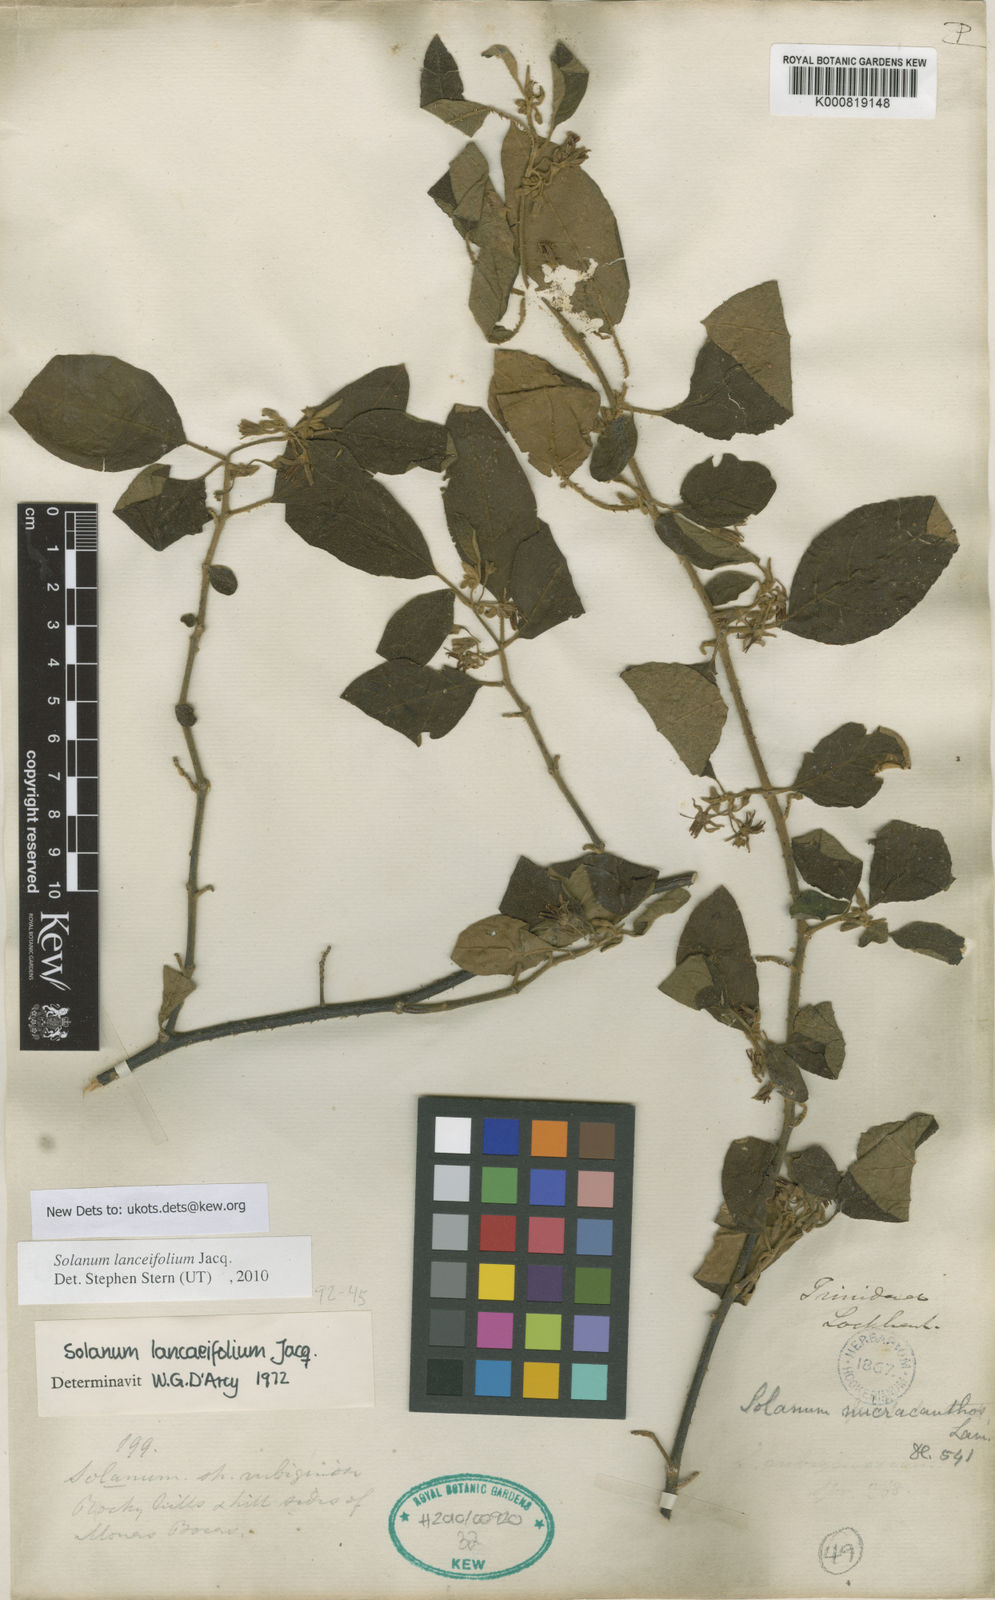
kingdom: Plantae
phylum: Tracheophyta
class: Magnoliopsida
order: Solanales
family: Solanaceae
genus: Solanum
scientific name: Solanum lanceifolium
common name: Lanceleaf nightshade
